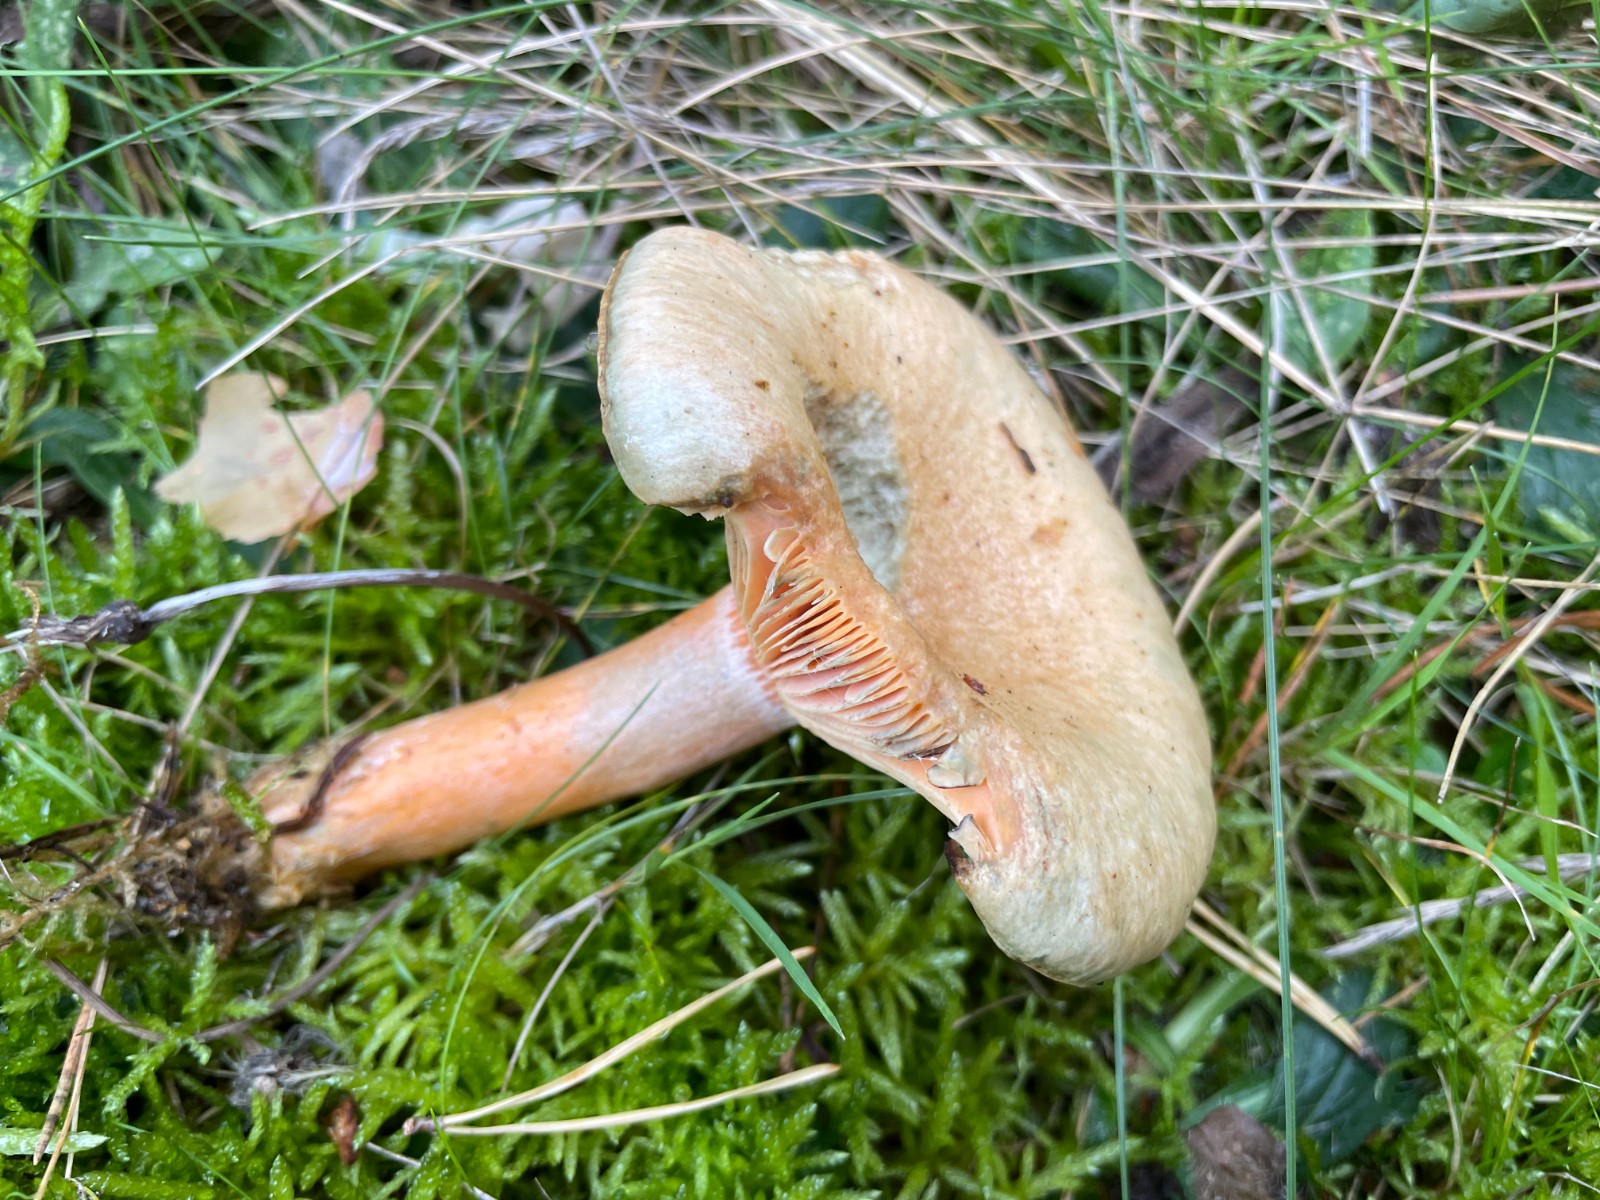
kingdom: Fungi
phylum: Basidiomycota
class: Agaricomycetes
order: Russulales
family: Russulaceae
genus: Lactarius
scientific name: Lactarius deterrimus
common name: gran-mælkehat
